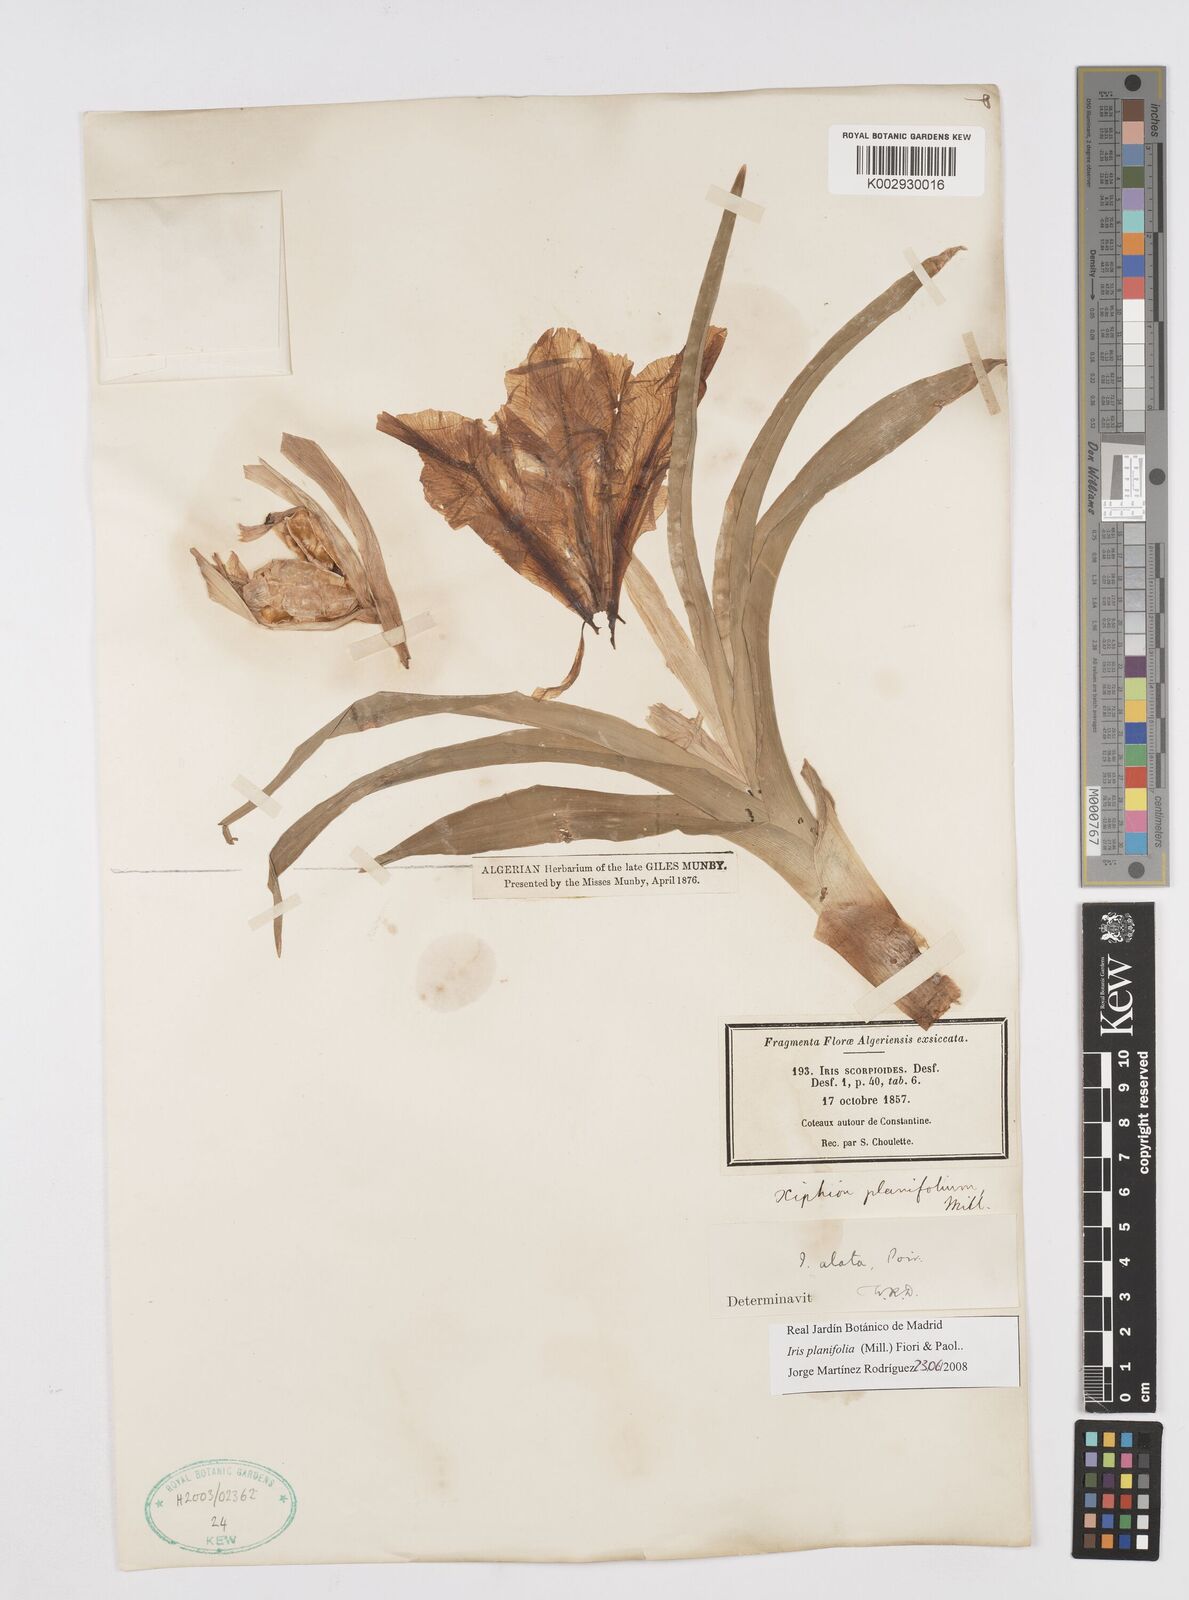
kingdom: Plantae
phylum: Tracheophyta
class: Liliopsida
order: Asparagales
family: Iridaceae
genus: Iris
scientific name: Iris planifolia
